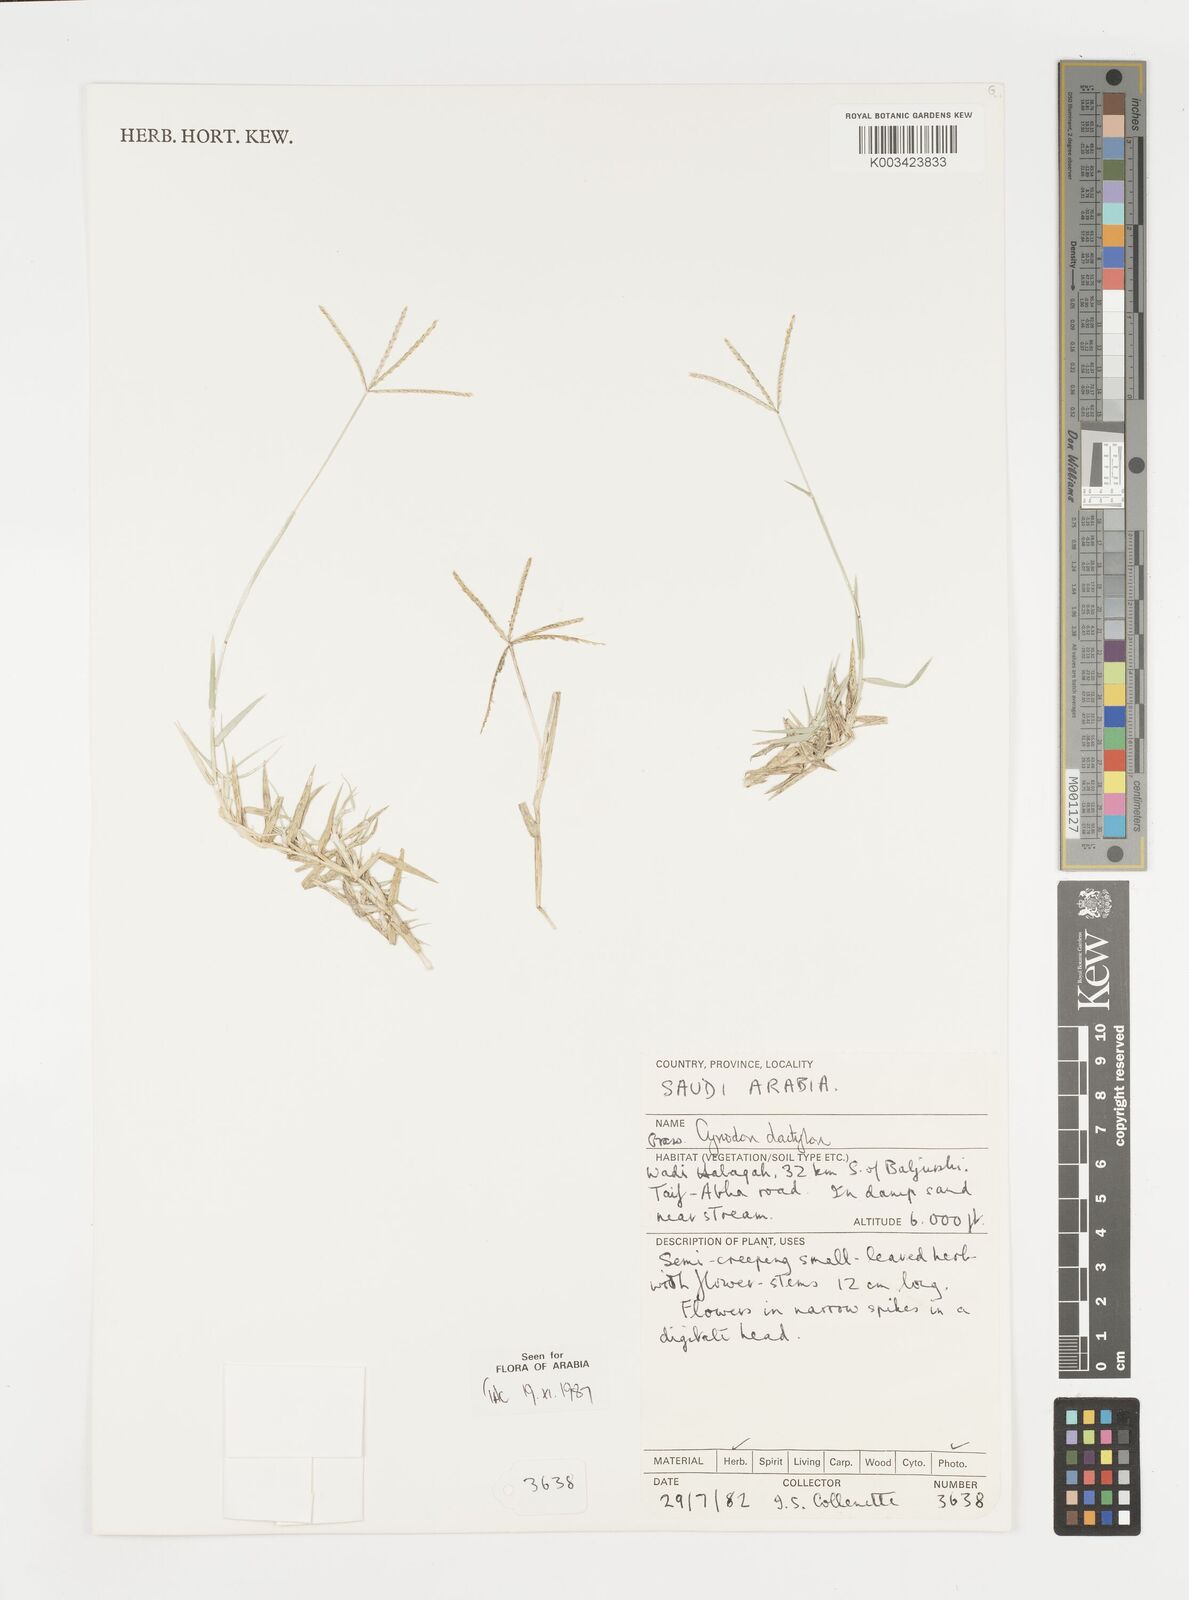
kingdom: Plantae
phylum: Tracheophyta
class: Liliopsida
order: Poales
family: Poaceae
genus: Cynodon
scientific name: Cynodon dactylon
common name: Bermuda grass
